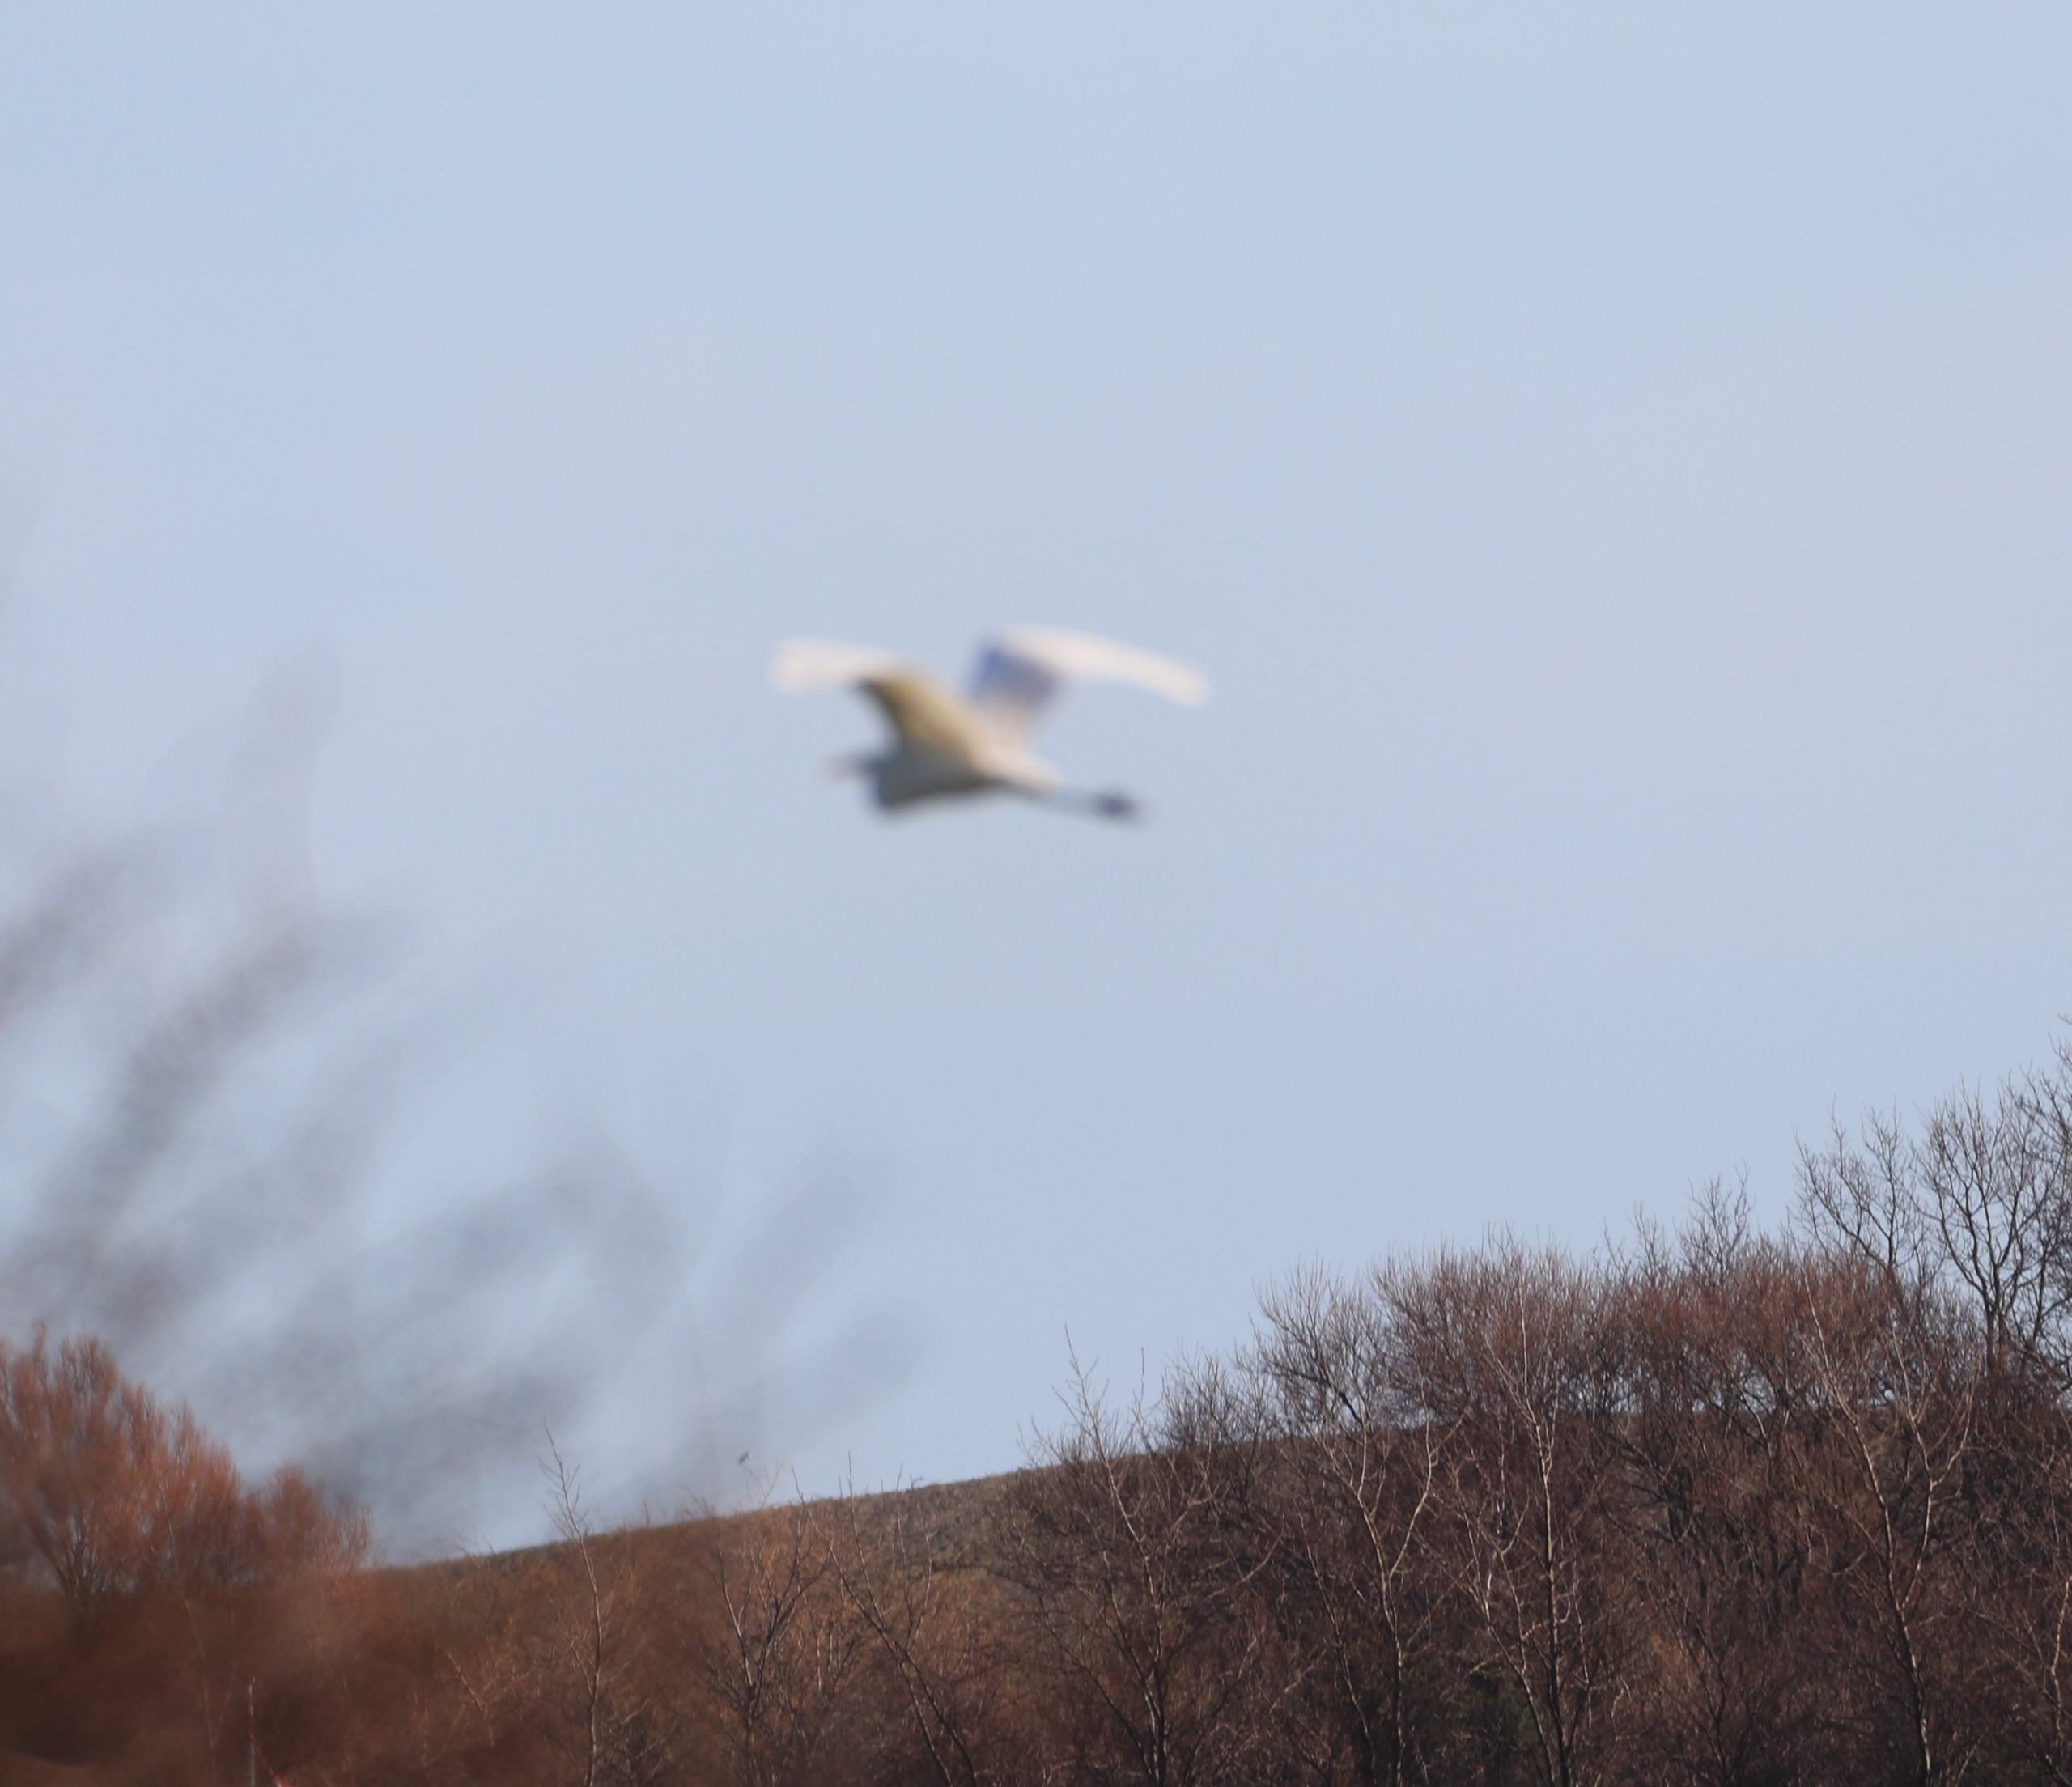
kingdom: Animalia
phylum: Chordata
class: Aves
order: Pelecaniformes
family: Ardeidae
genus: Ardea
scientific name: Ardea alba
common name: Sølvhejre
